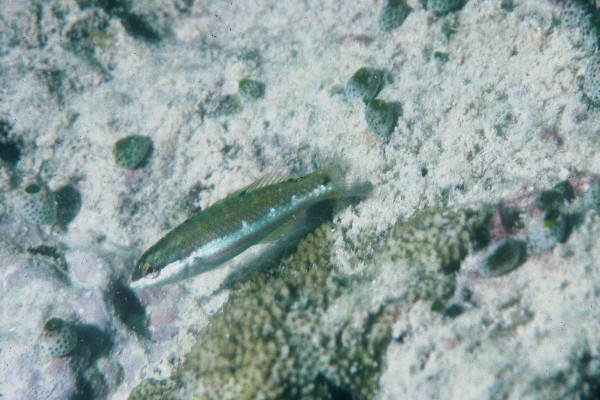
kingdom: Animalia
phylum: Chordata
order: Perciformes
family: Labridae
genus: Thalassoma
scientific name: Thalassoma quinquevittatum
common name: Five striped surge wrasse
